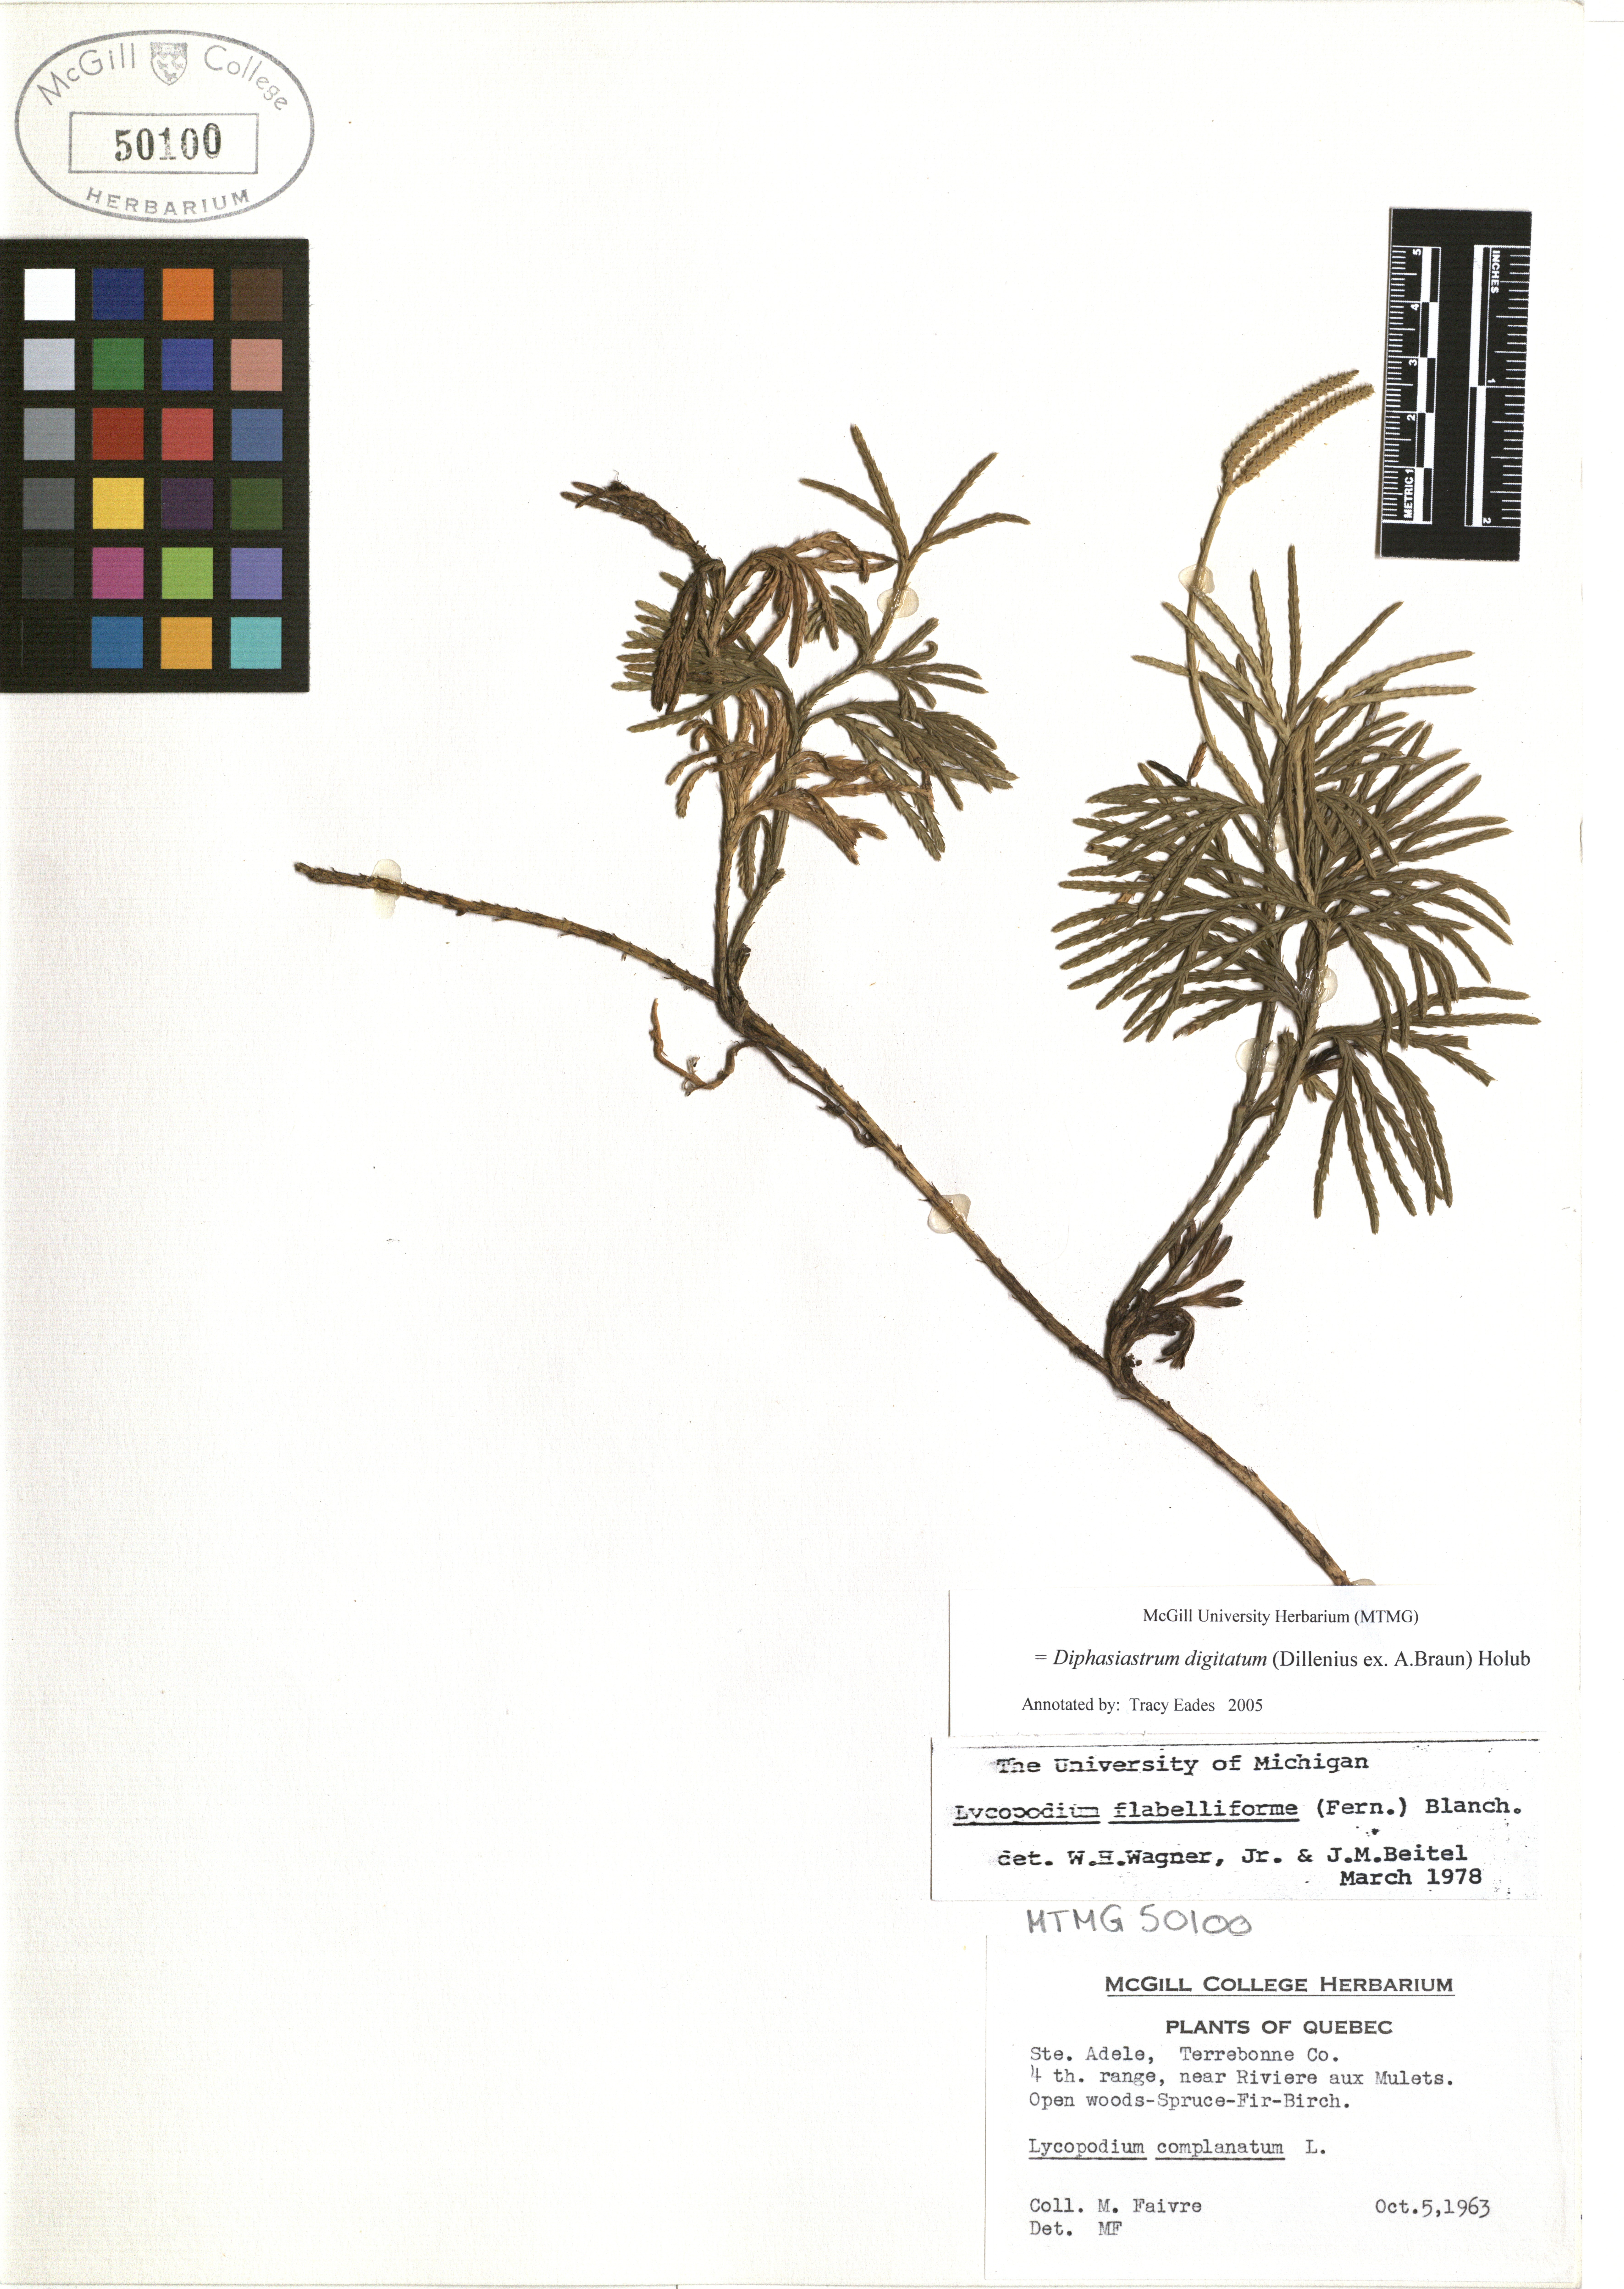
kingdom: Plantae
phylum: Tracheophyta
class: Lycopodiopsida
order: Lycopodiales
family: Lycopodiaceae
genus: Diphasiastrum
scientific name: Diphasiastrum digitatum
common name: Southern running-pine
